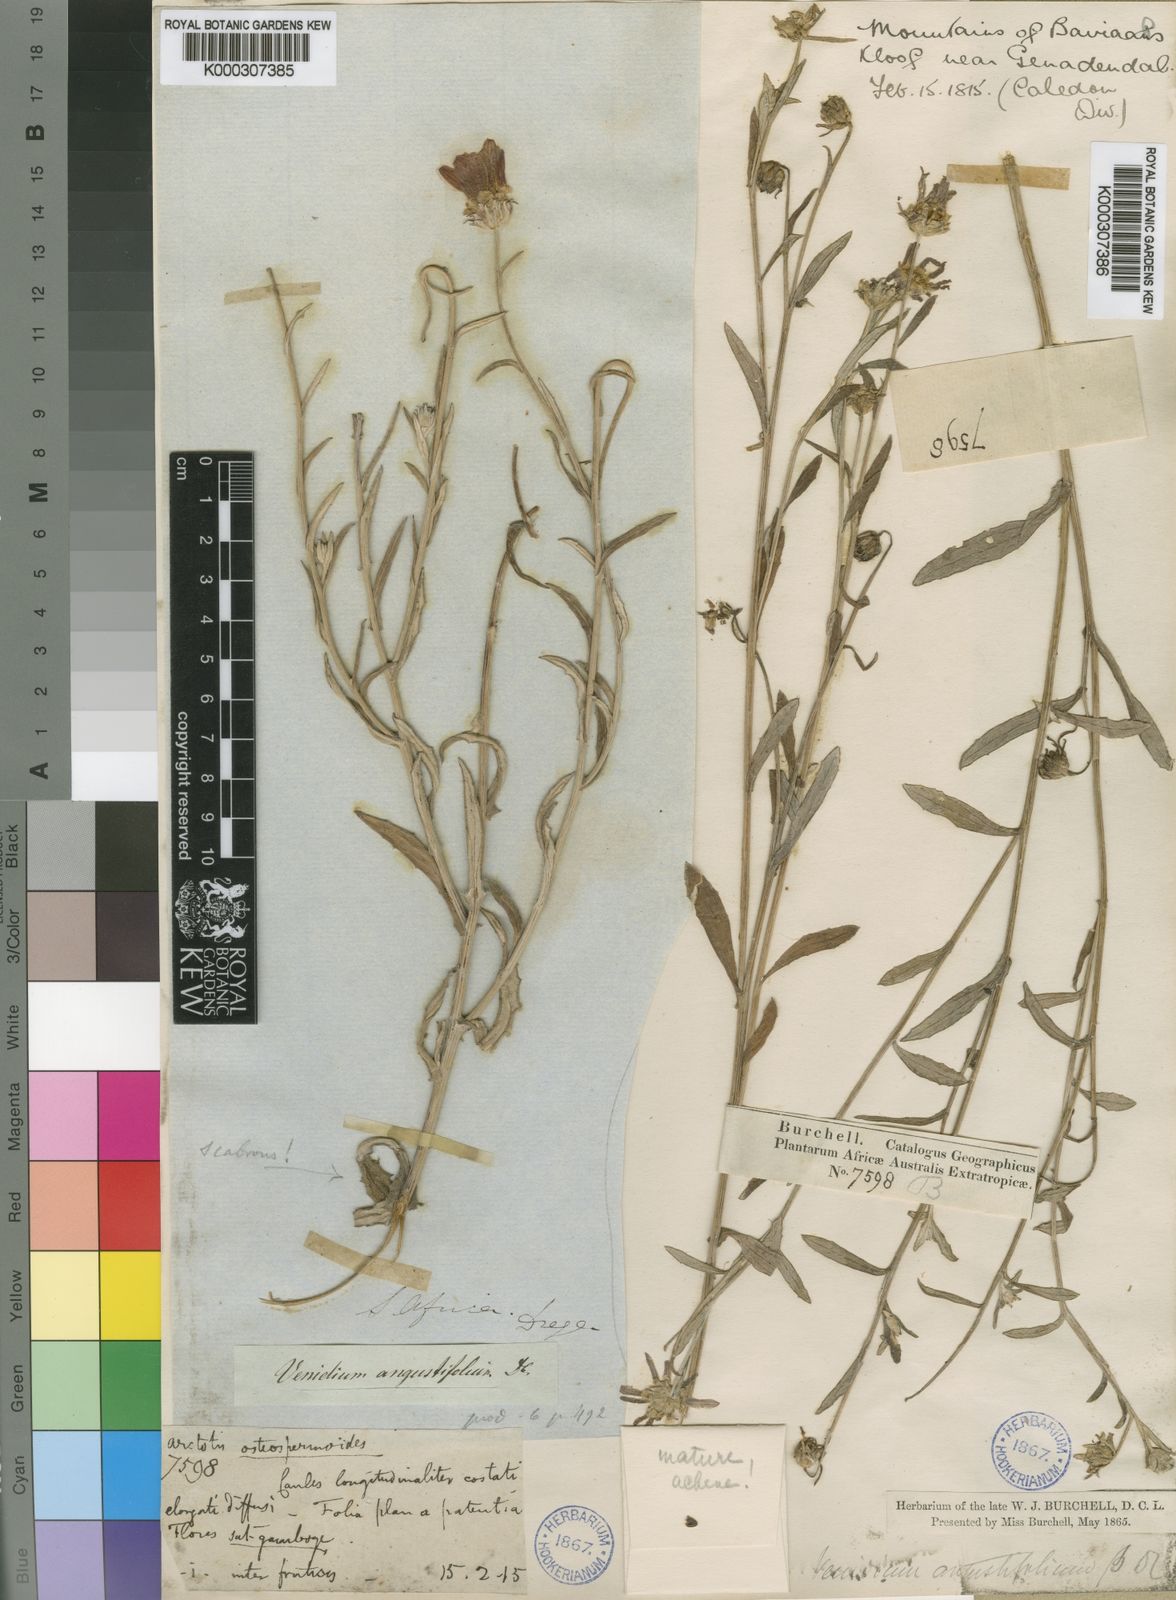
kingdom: Plantae
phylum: Tracheophyta
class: Magnoliopsida
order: Asterales
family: Asteraceae
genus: Arctotis
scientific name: Arctotis scabra
